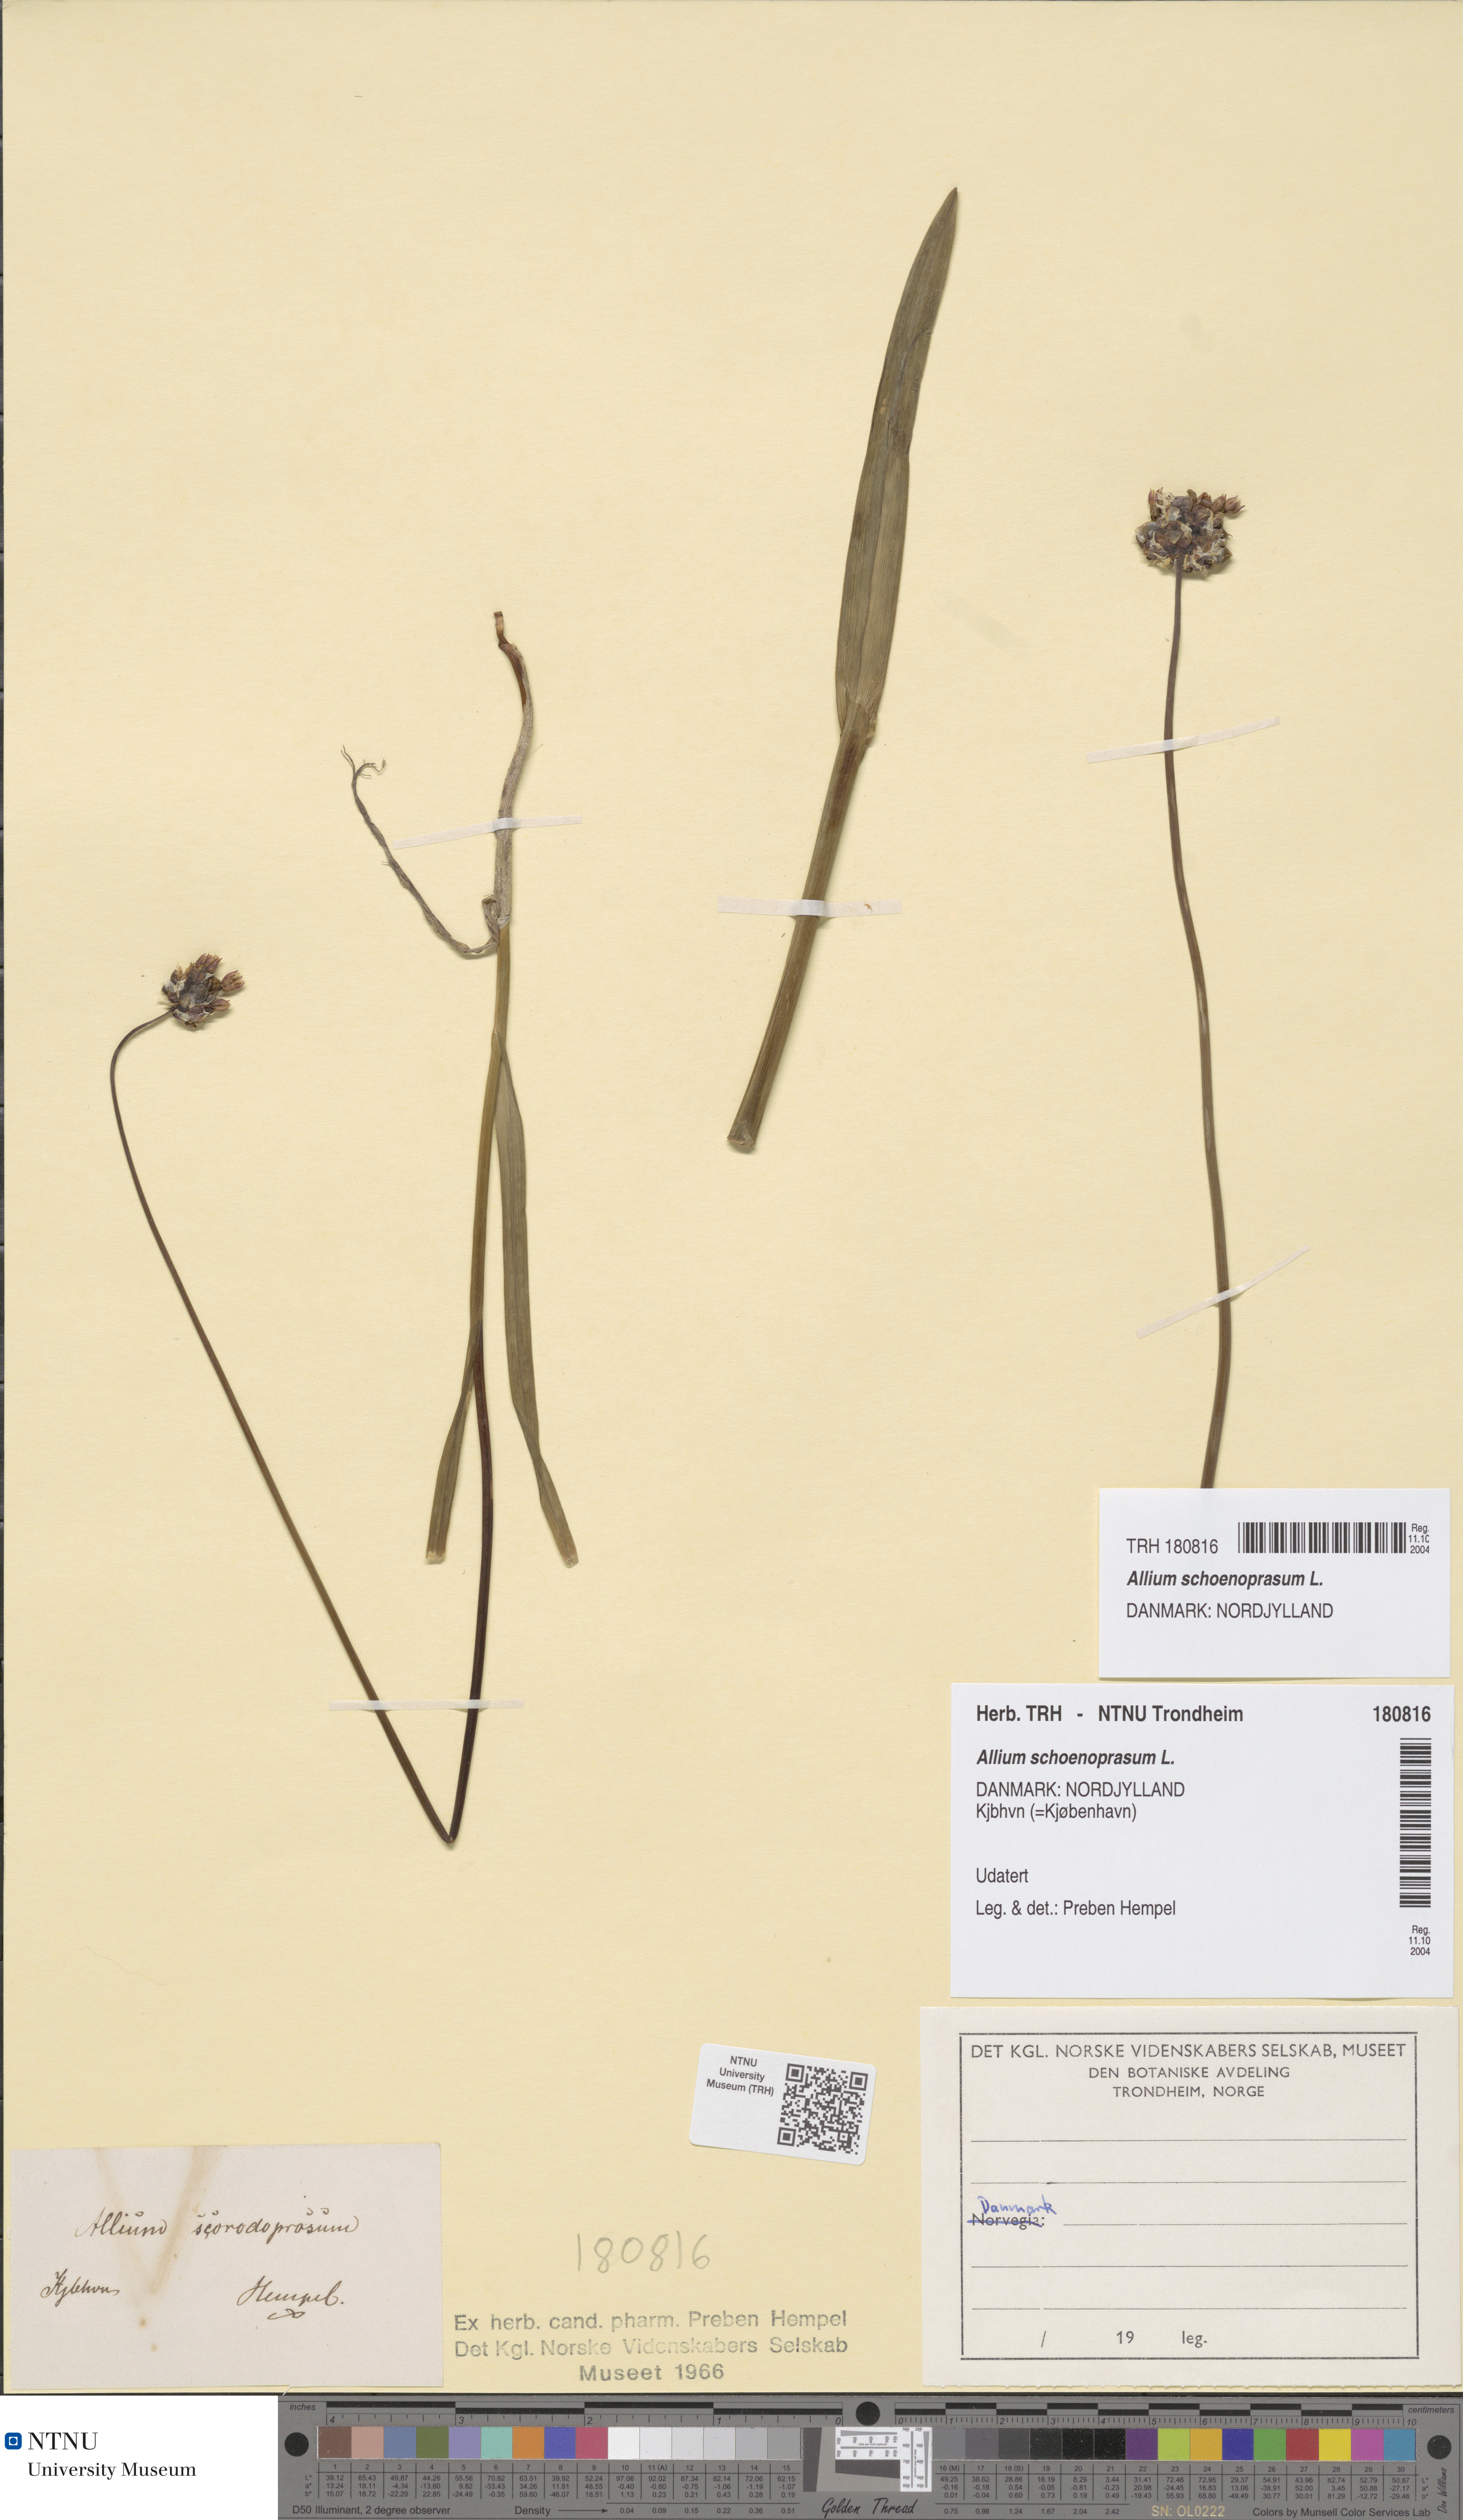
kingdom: Plantae
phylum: Tracheophyta
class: Liliopsida
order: Asparagales
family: Amaryllidaceae
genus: Allium
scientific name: Allium schoenoprasum
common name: Chives
